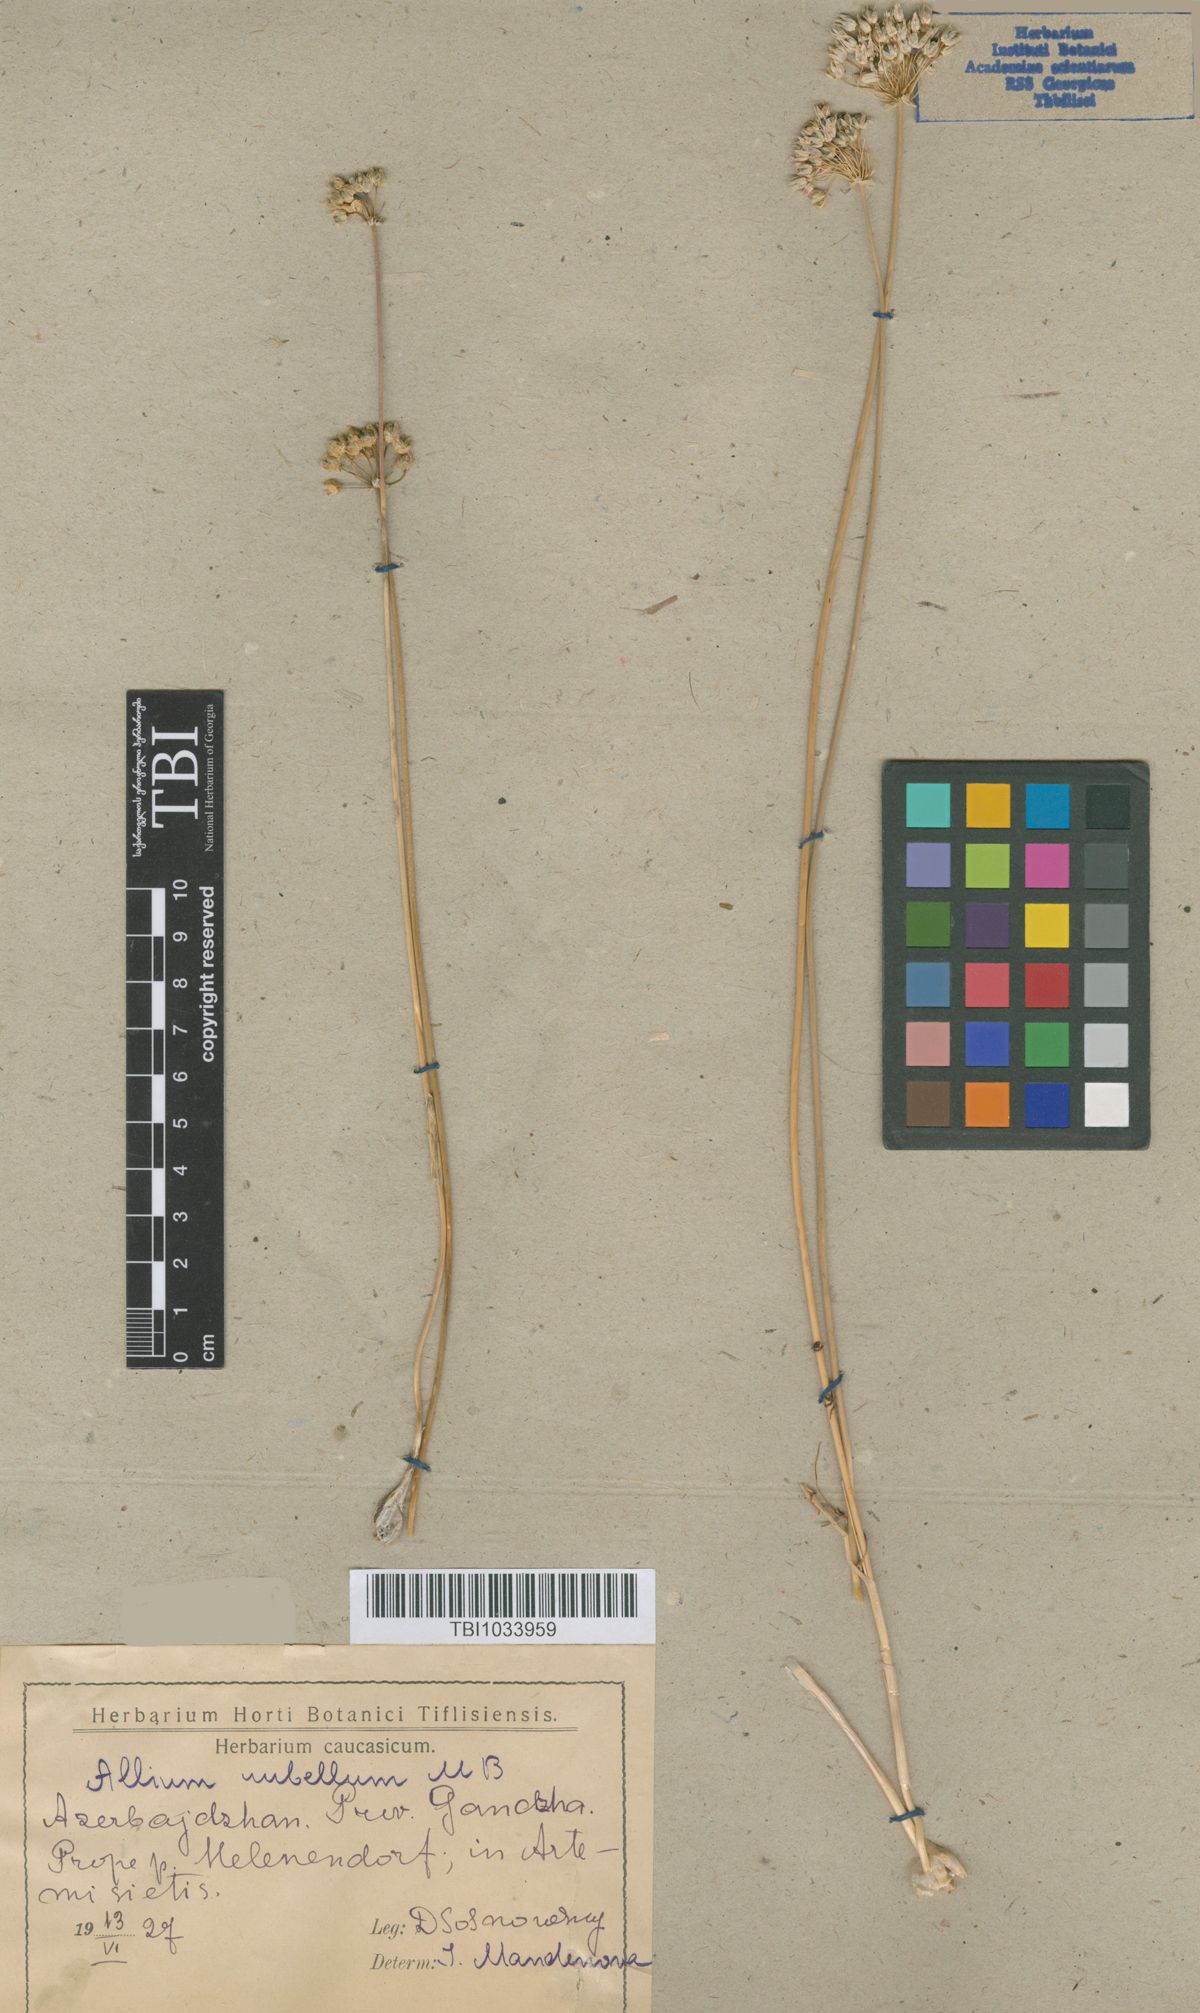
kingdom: Plantae
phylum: Tracheophyta
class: Liliopsida
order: Asparagales
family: Amaryllidaceae
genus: Allium
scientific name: Allium rubellum
